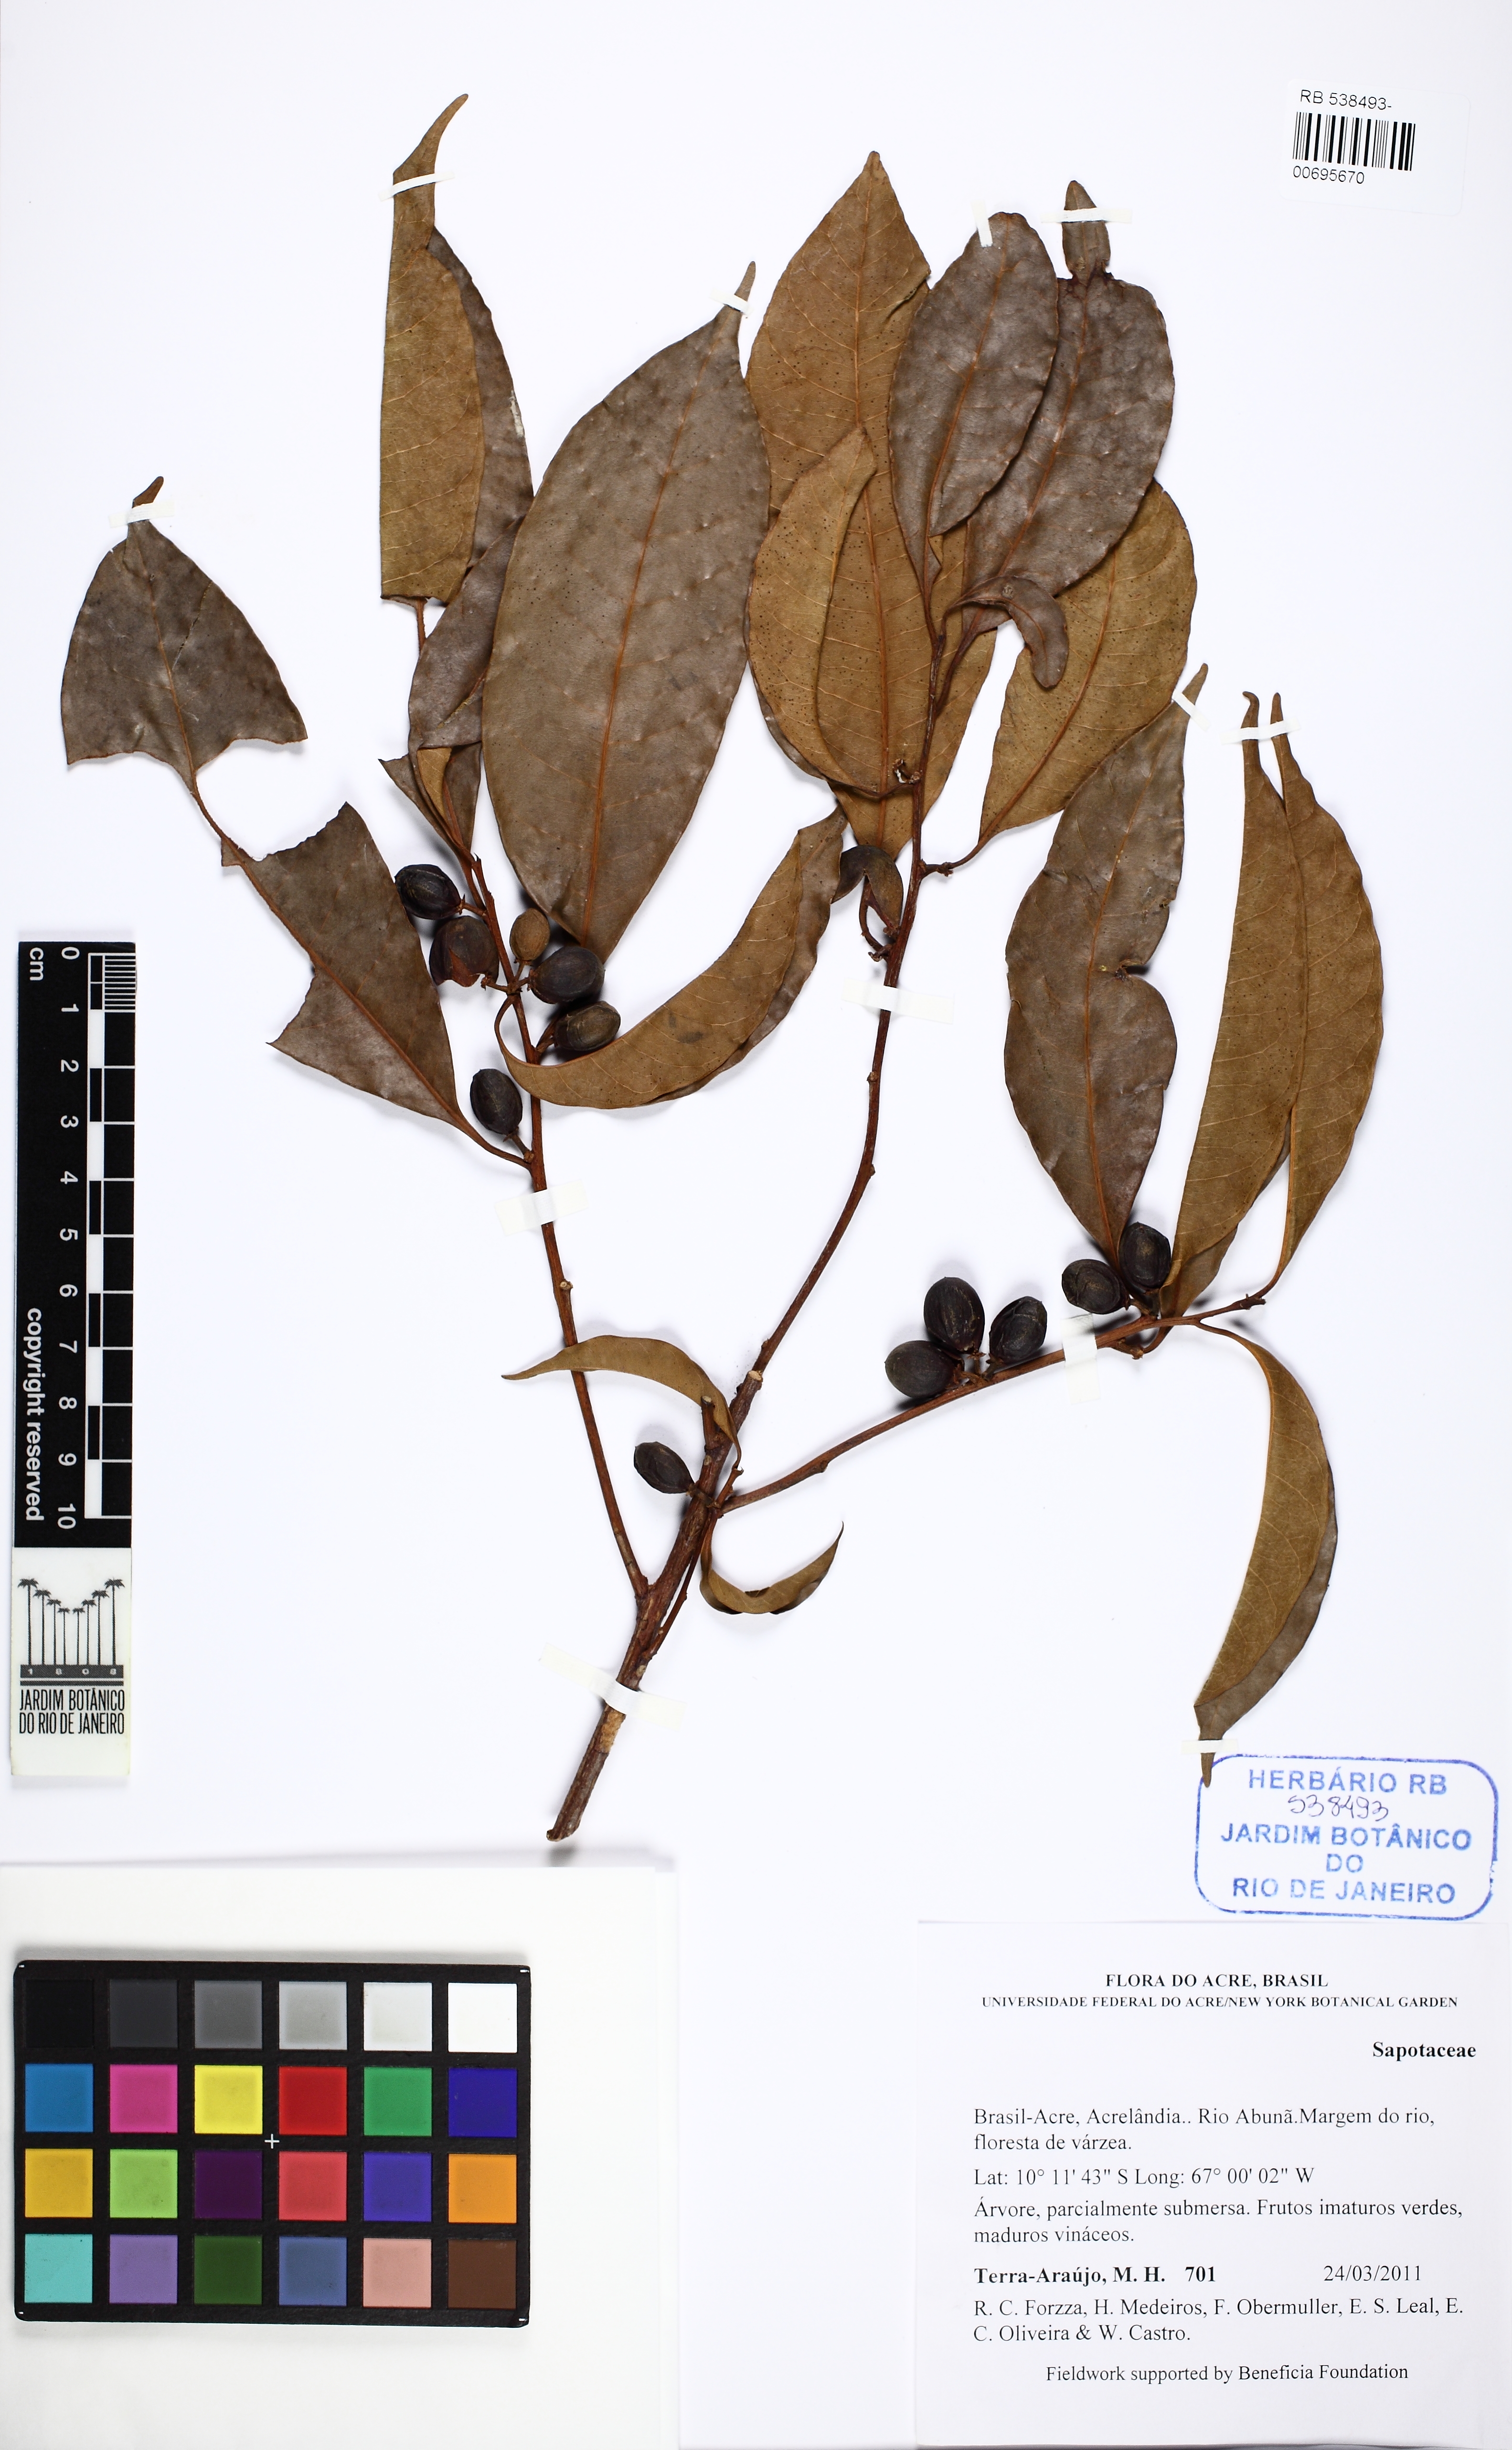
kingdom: Plantae
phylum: Tracheophyta
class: Magnoliopsida
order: Ericales
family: Sapotaceae
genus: Pouteria
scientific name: Pouteria
